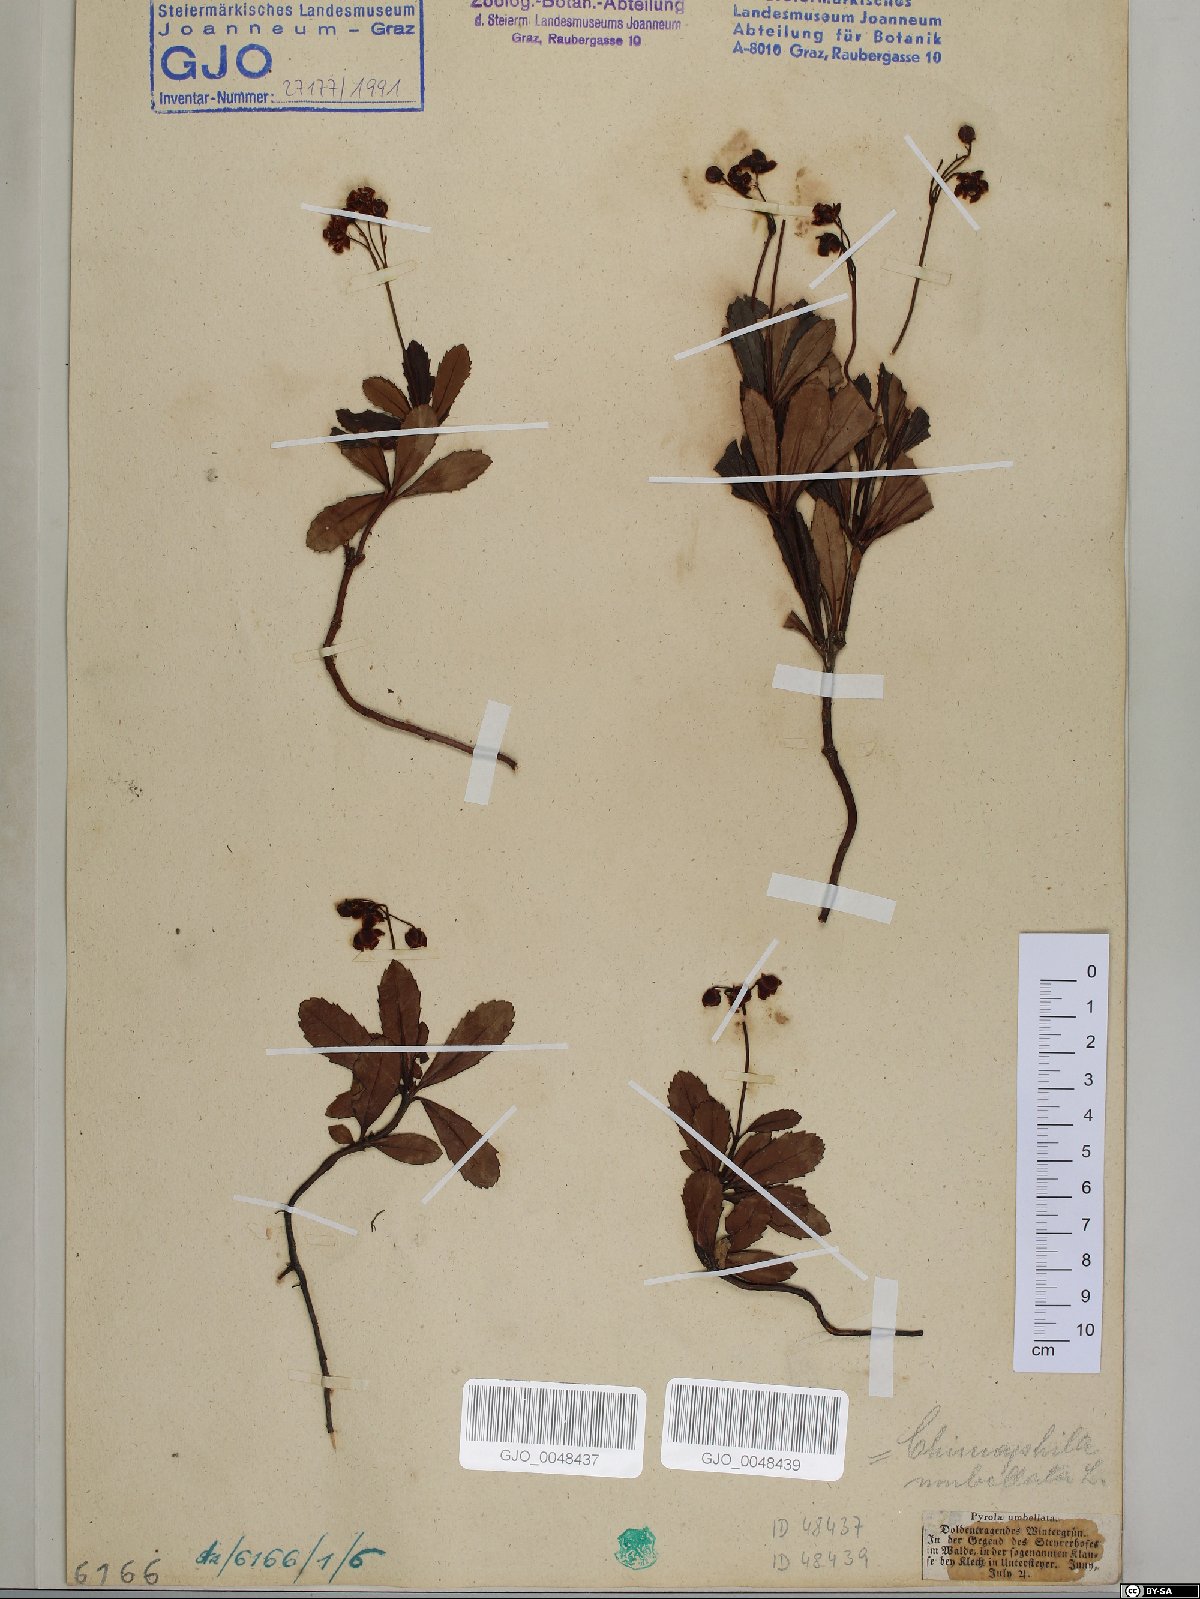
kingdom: Plantae
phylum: Bryophyta
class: Polytrichopsida
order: Polytrichales
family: Polytrichaceae
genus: Polytrichum
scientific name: Polytrichum formosum
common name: Bank haircap moss
